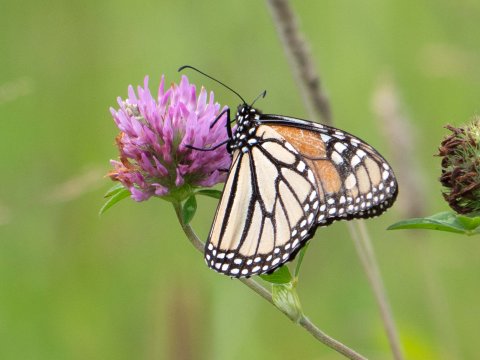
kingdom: Animalia
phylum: Arthropoda
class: Insecta
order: Lepidoptera
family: Nymphalidae
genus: Danaus
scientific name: Danaus plexippus
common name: Monarch
